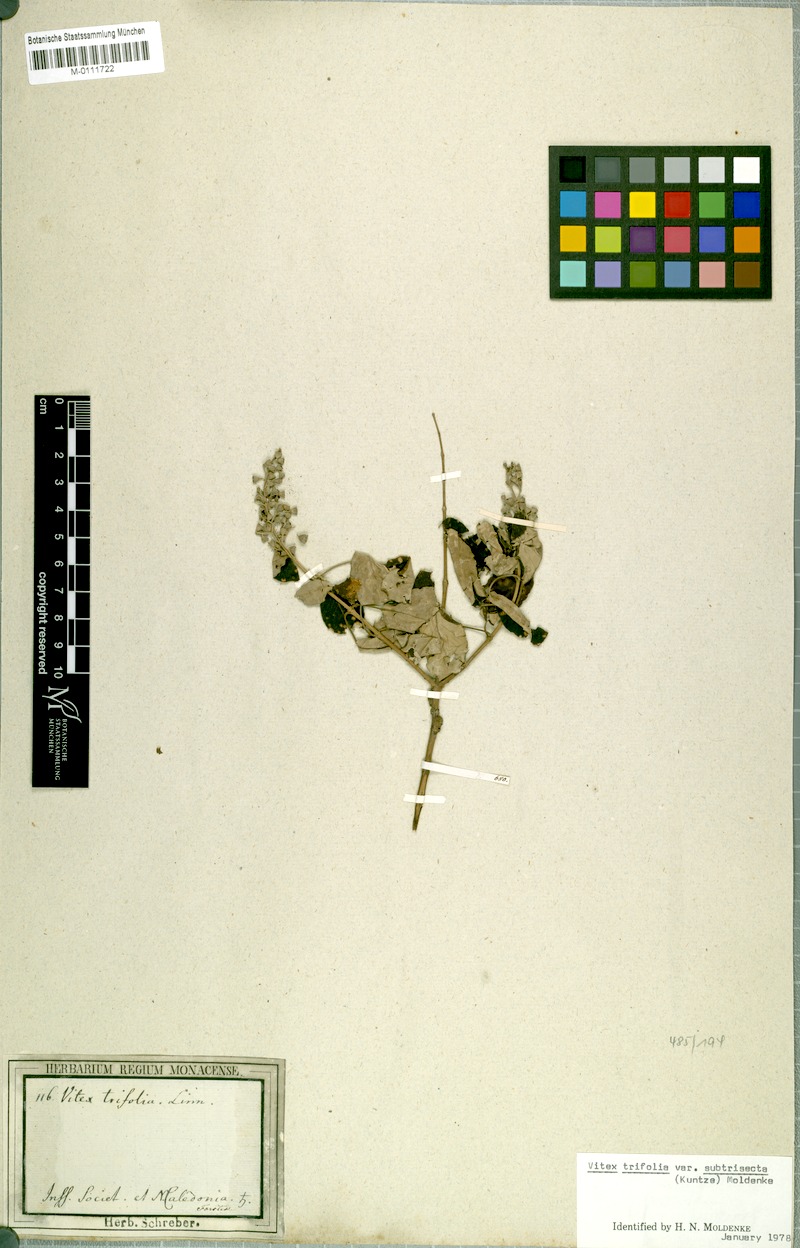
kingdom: Plantae
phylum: Tracheophyta
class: Magnoliopsida
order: Lamiales
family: Lamiaceae
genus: Vitex
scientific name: Vitex trifolia
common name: Simpleleaf chastetree
